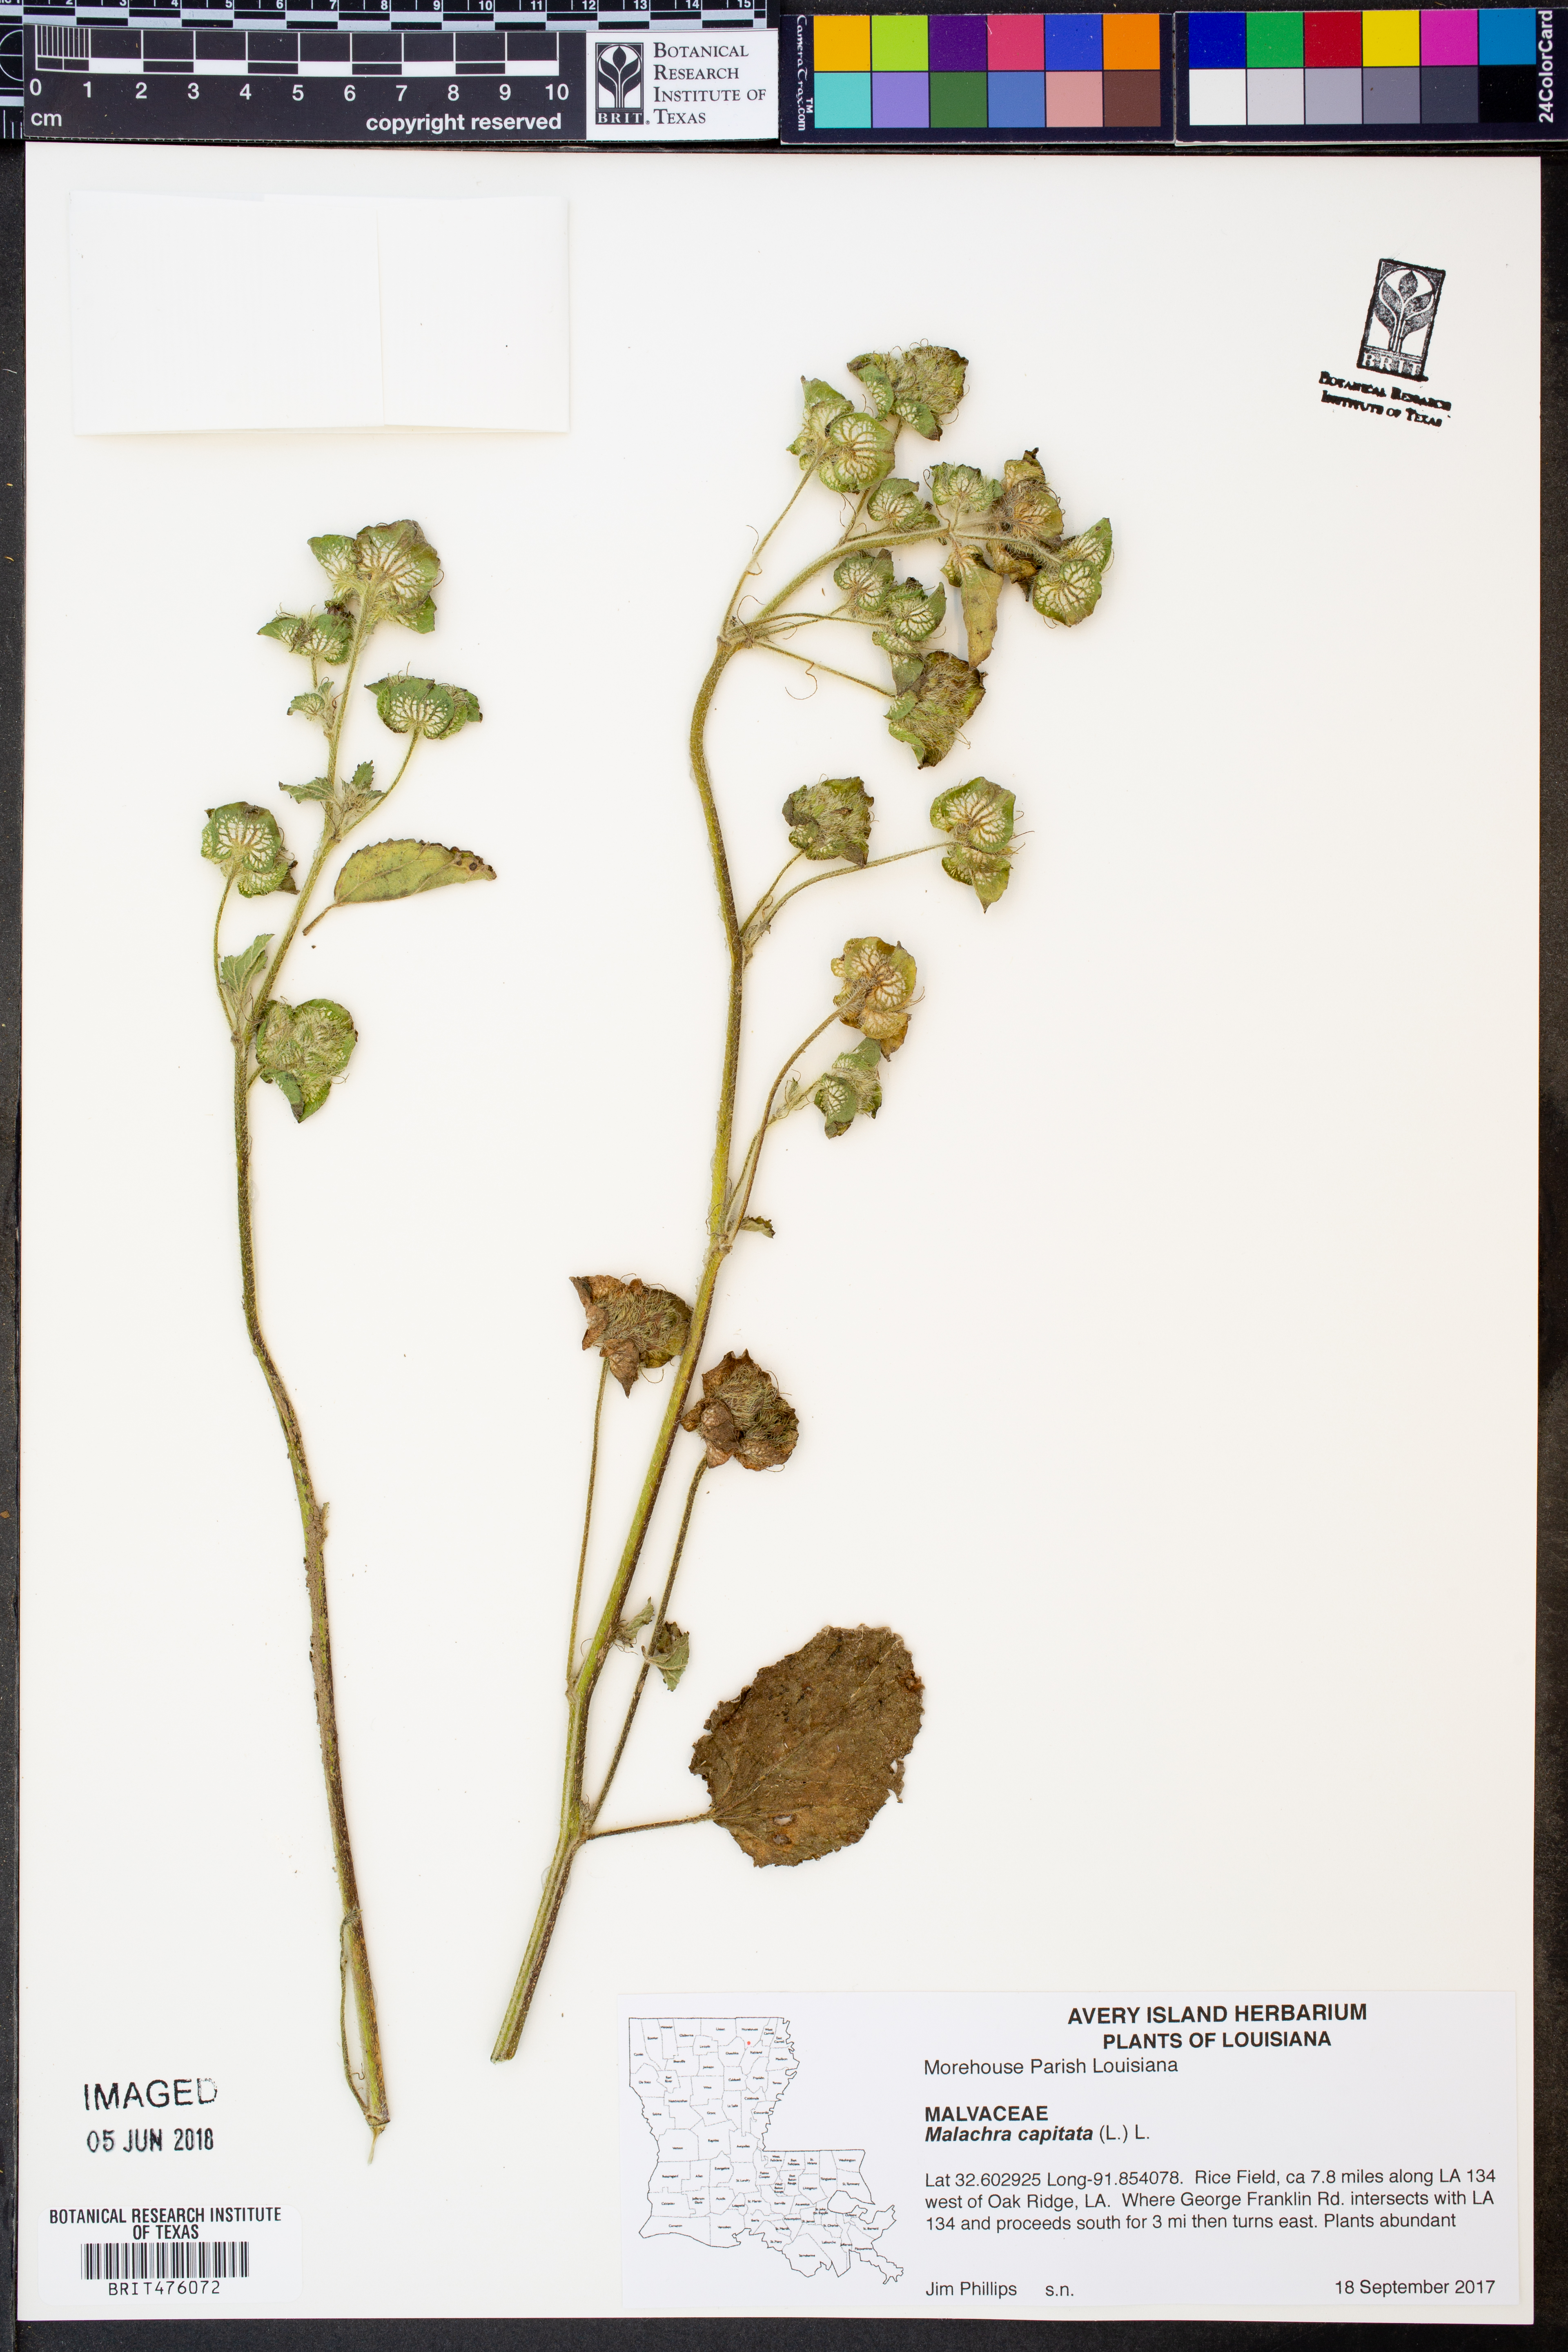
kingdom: Plantae
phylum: Tracheophyta
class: Magnoliopsida
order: Malvales
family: Malvaceae
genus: Malachra
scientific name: Malachra capitata
